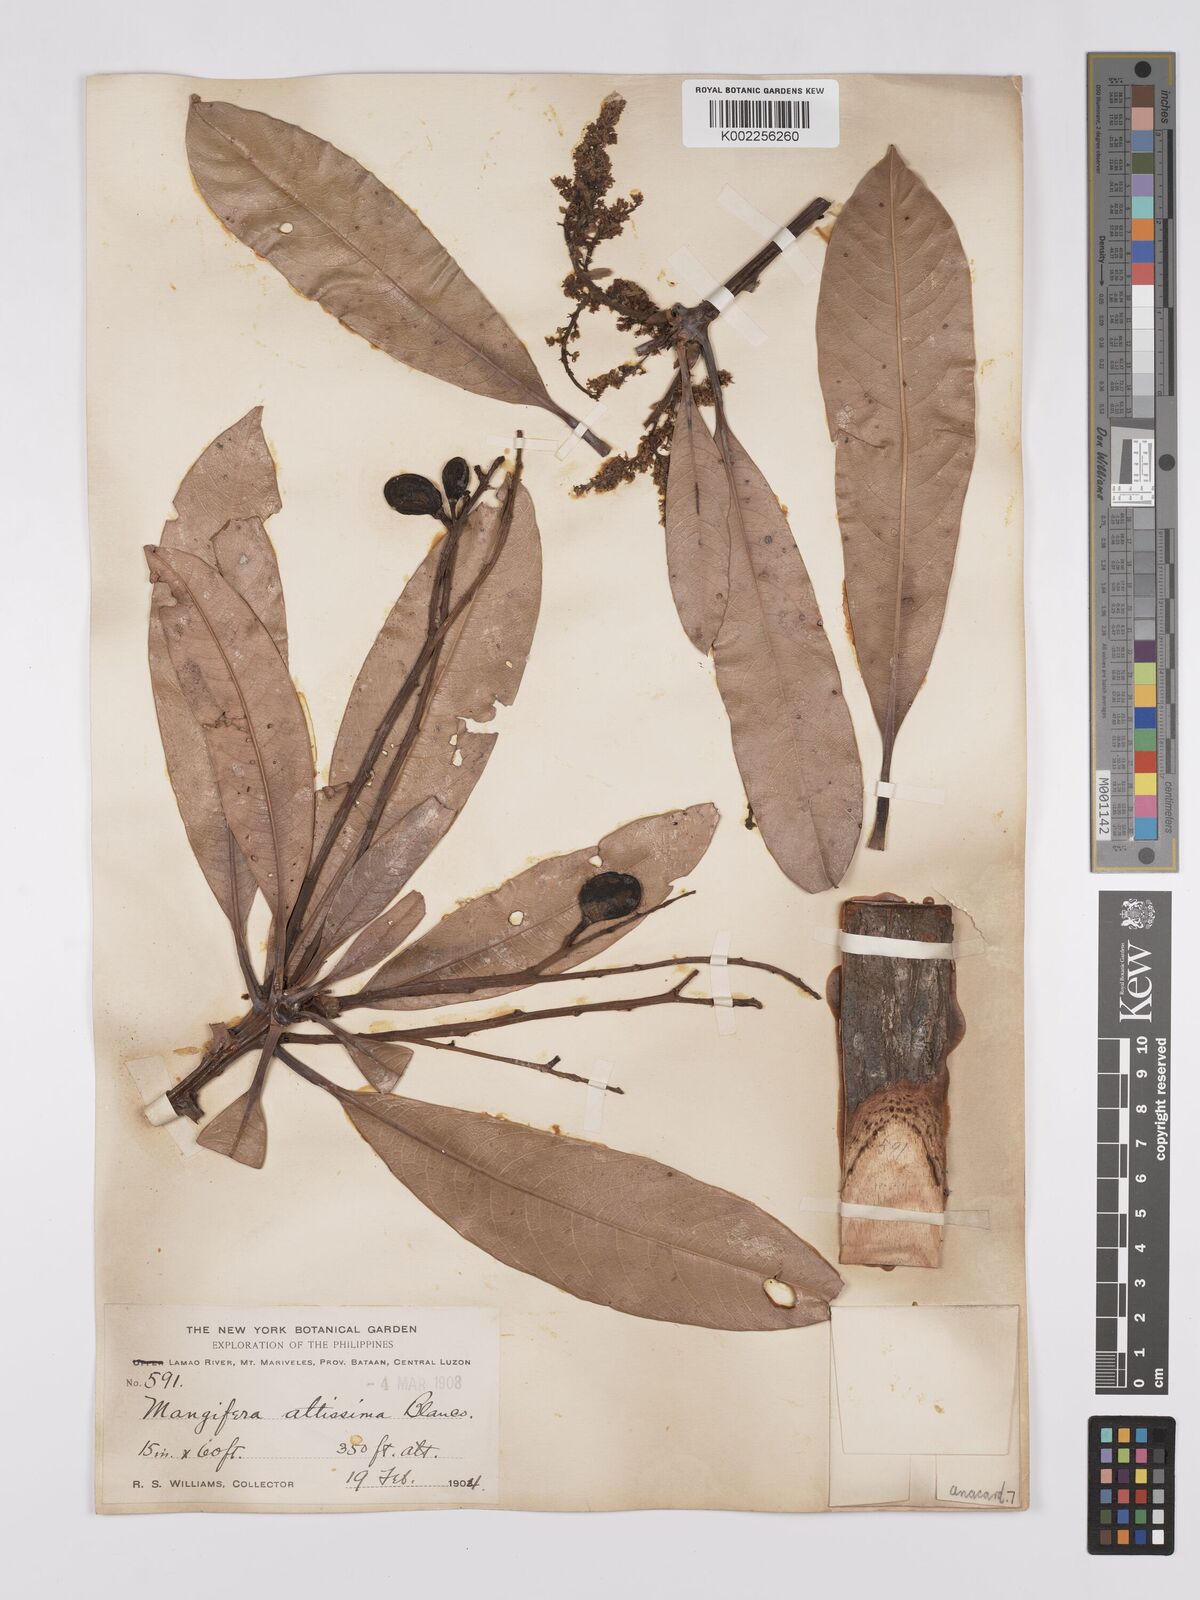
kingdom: Plantae
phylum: Tracheophyta
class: Magnoliopsida
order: Sapindales
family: Anacardiaceae
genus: Mangifera
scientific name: Mangifera altissima
